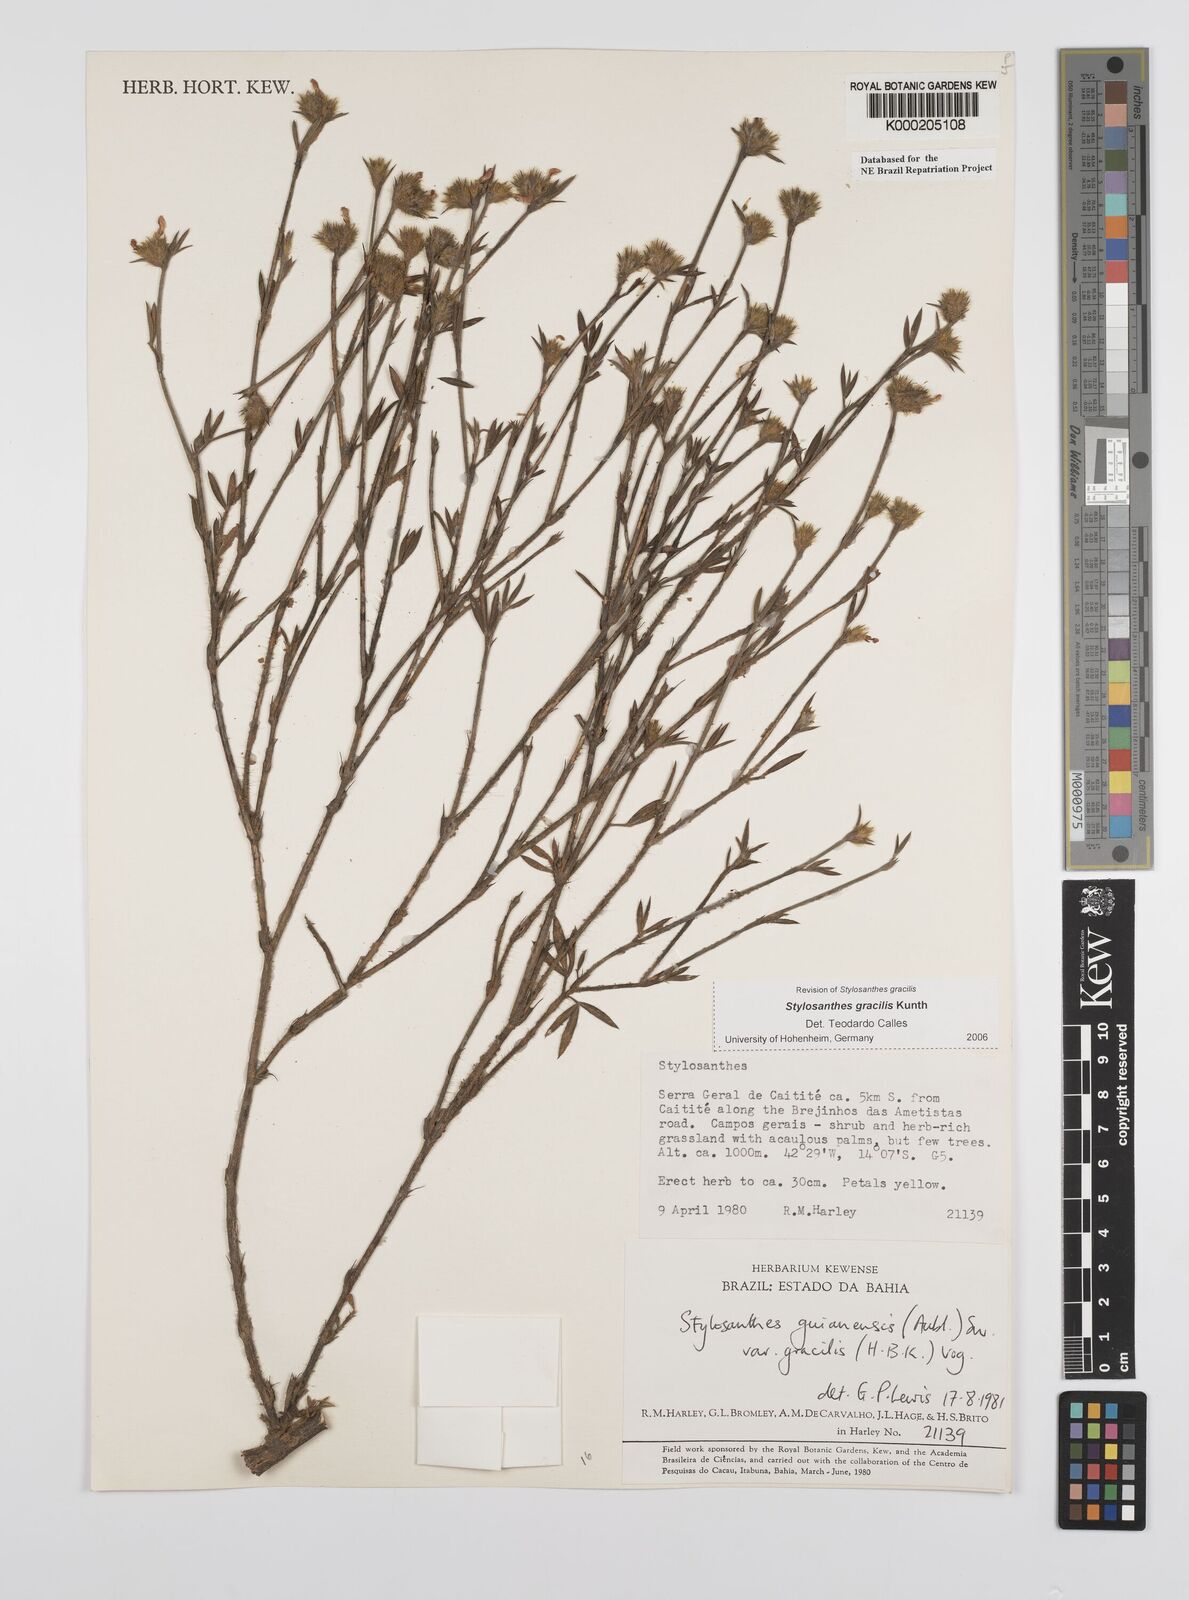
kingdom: Plantae
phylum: Tracheophyta
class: Magnoliopsida
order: Fabales
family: Fabaceae
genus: Stylosanthes
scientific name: Stylosanthes guianensis
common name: Pencil flower
